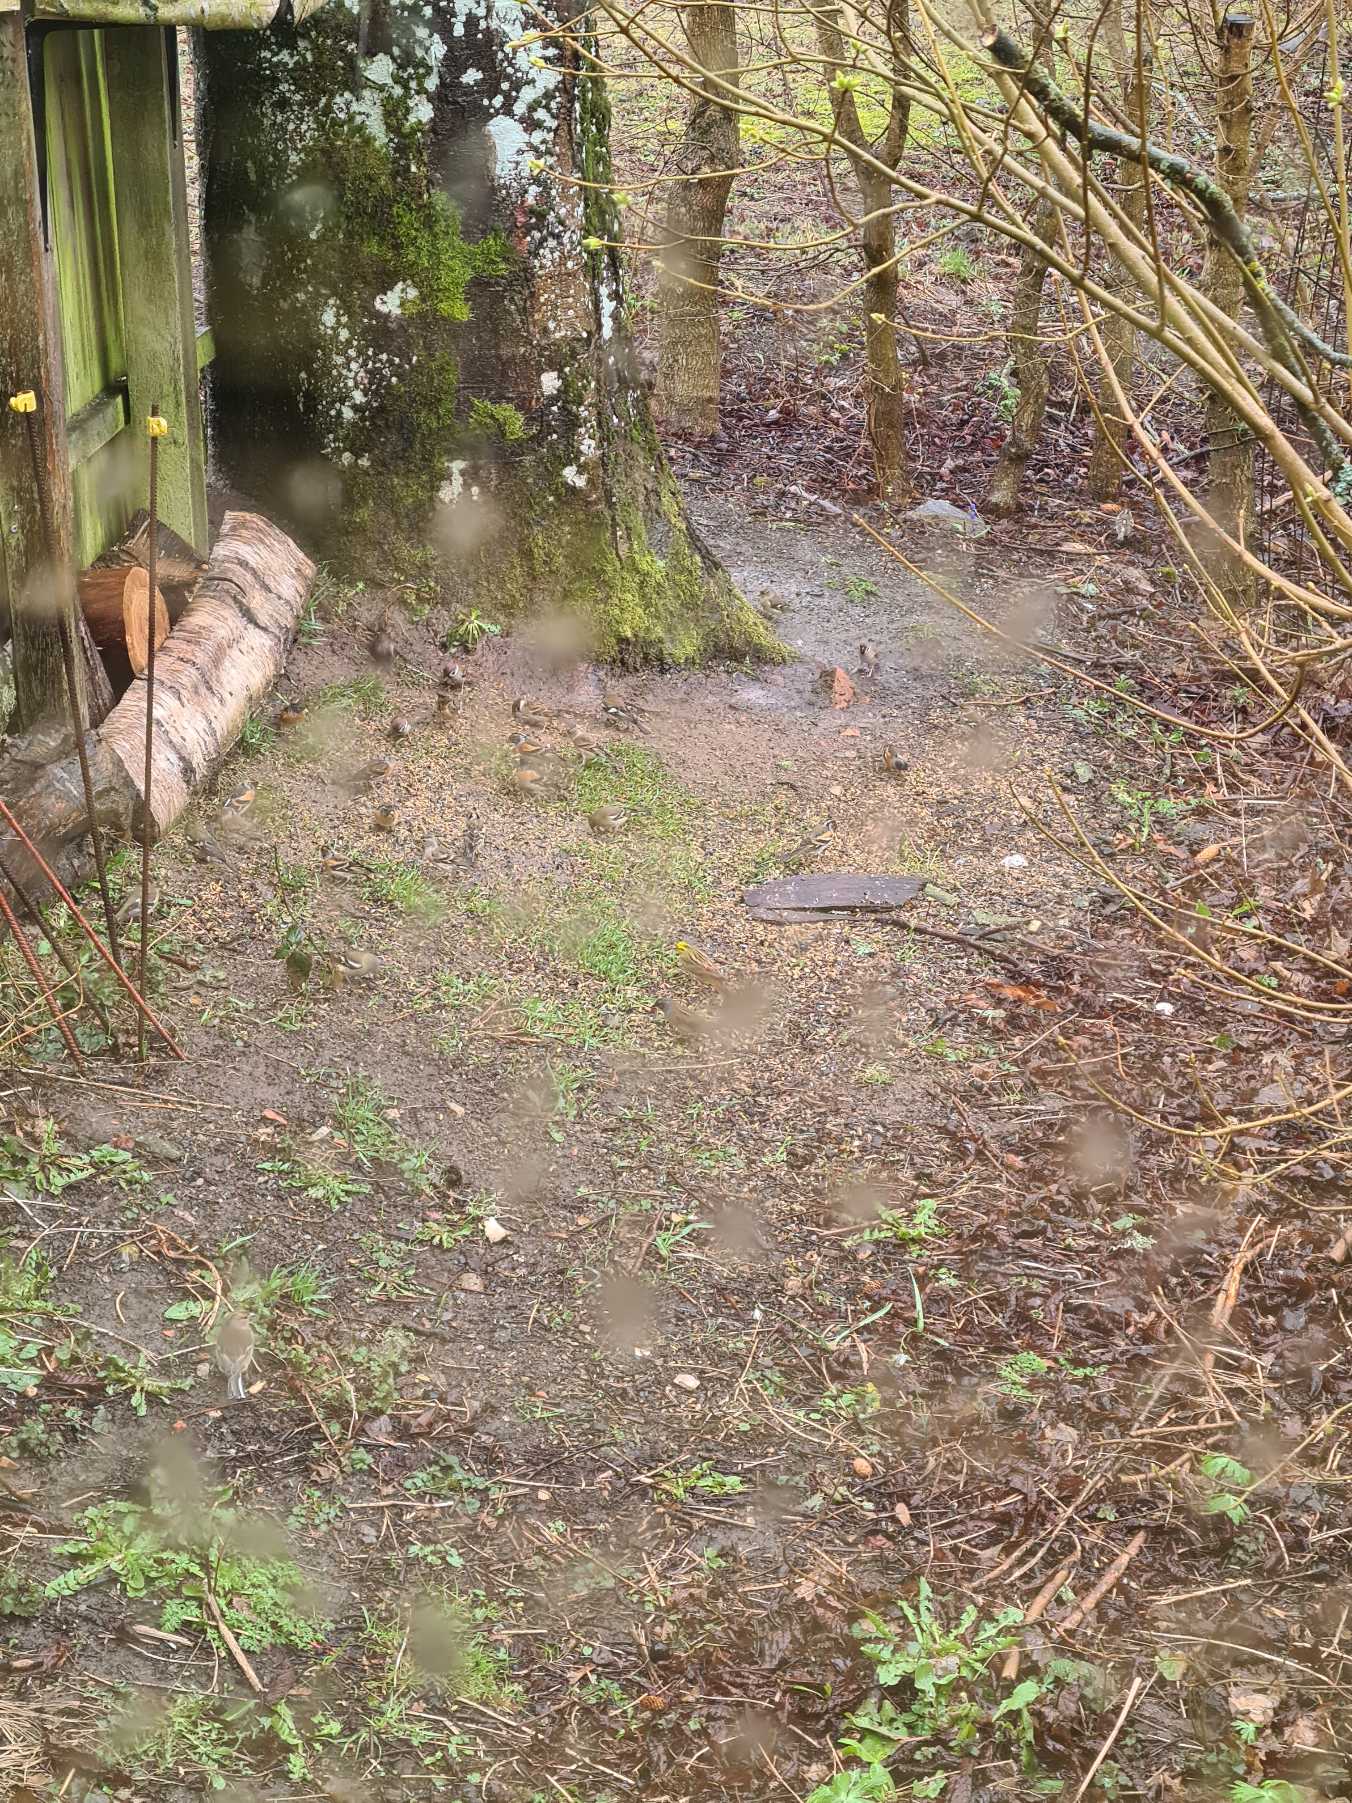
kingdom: Animalia
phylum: Chordata
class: Aves
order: Passeriformes
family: Fringillidae
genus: Fringilla
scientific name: Fringilla montifringilla
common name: Kvækerfinke
